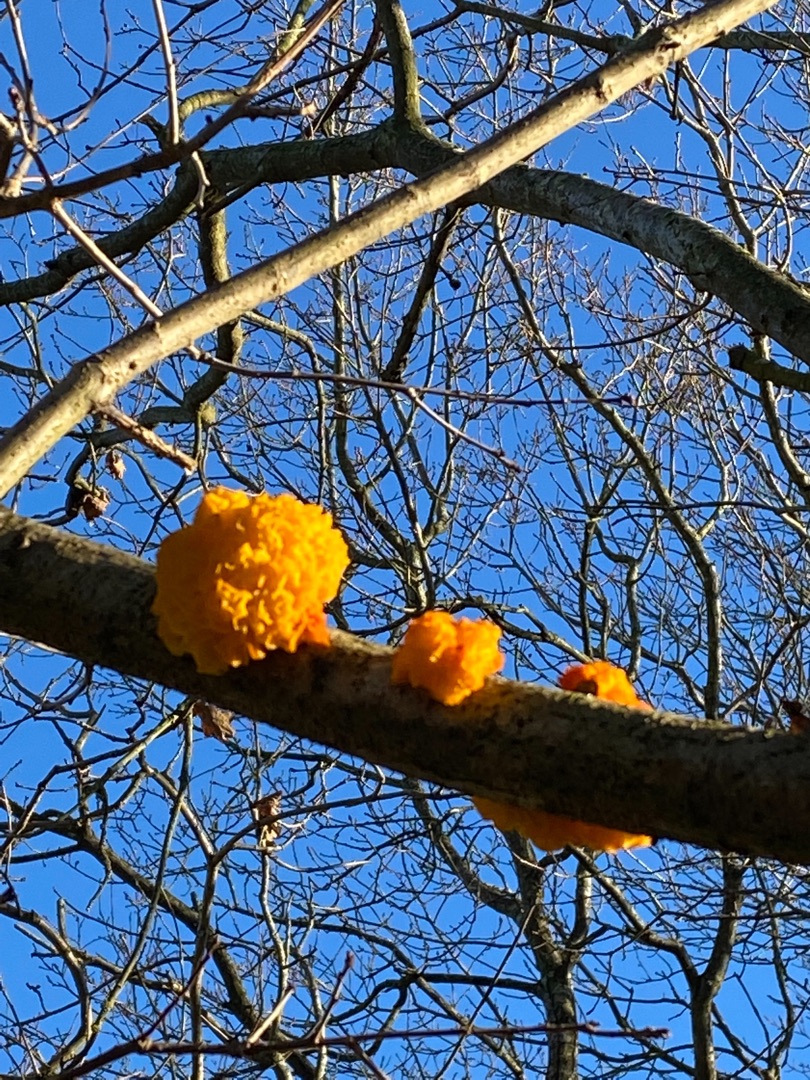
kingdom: Fungi
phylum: Basidiomycota
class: Tremellomycetes
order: Tremellales
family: Tremellaceae
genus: Tremella
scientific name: Tremella mesenterica
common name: Gul bævresvamp
